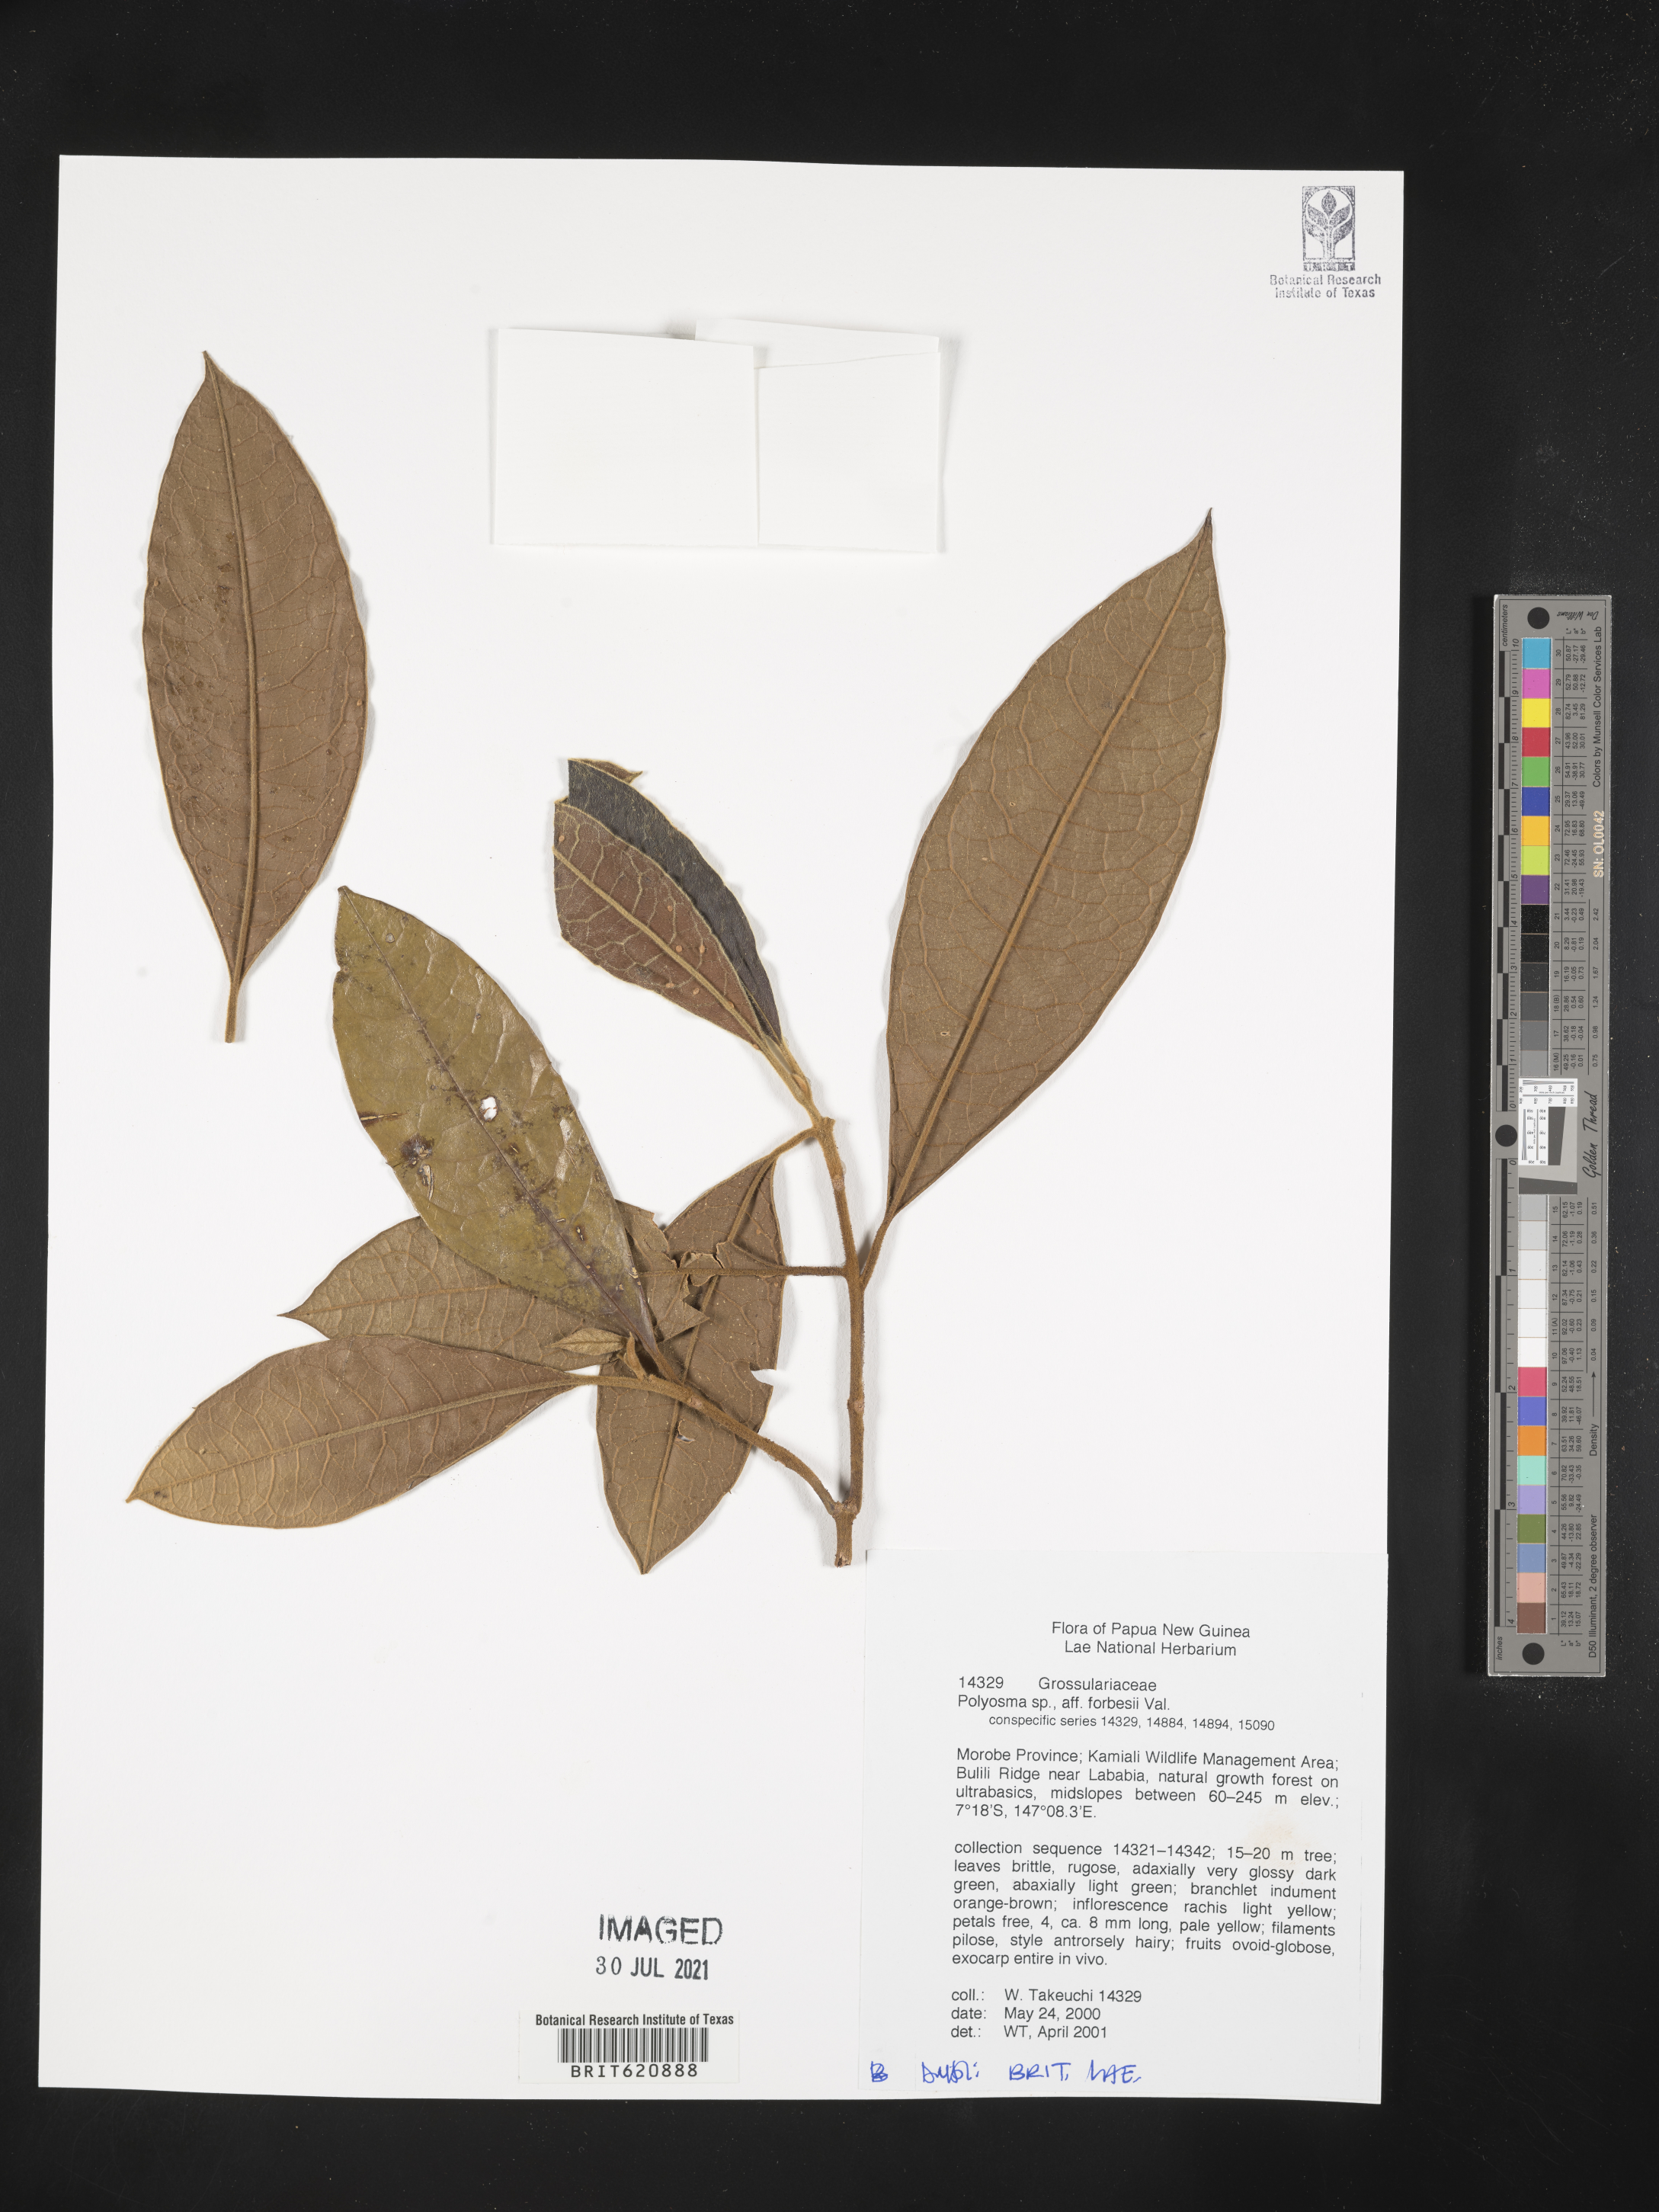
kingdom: Plantae
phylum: Tracheophyta
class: Magnoliopsida
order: Saxifragales
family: Grossulariaceae
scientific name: Grossulariaceae
